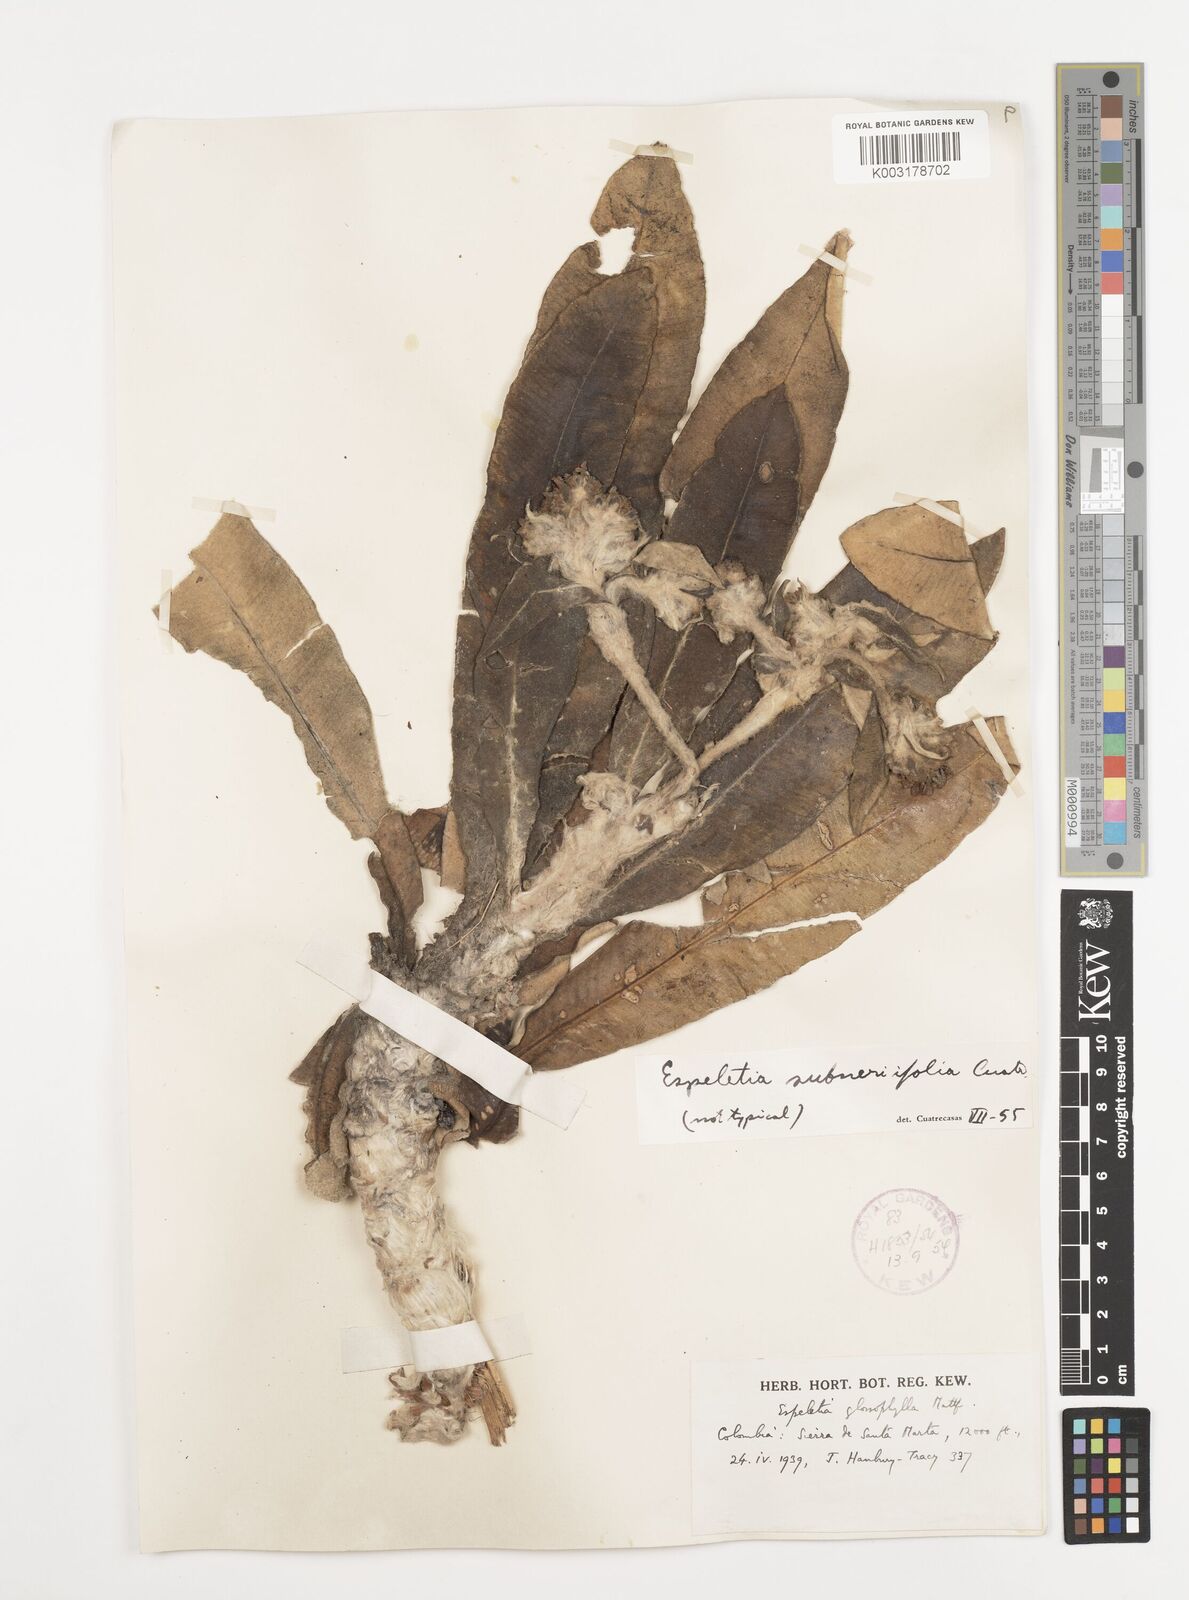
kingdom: Plantae
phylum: Tracheophyta
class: Magnoliopsida
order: Asterales
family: Asteraceae
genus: Espeletia
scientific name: Espeletia occulta
